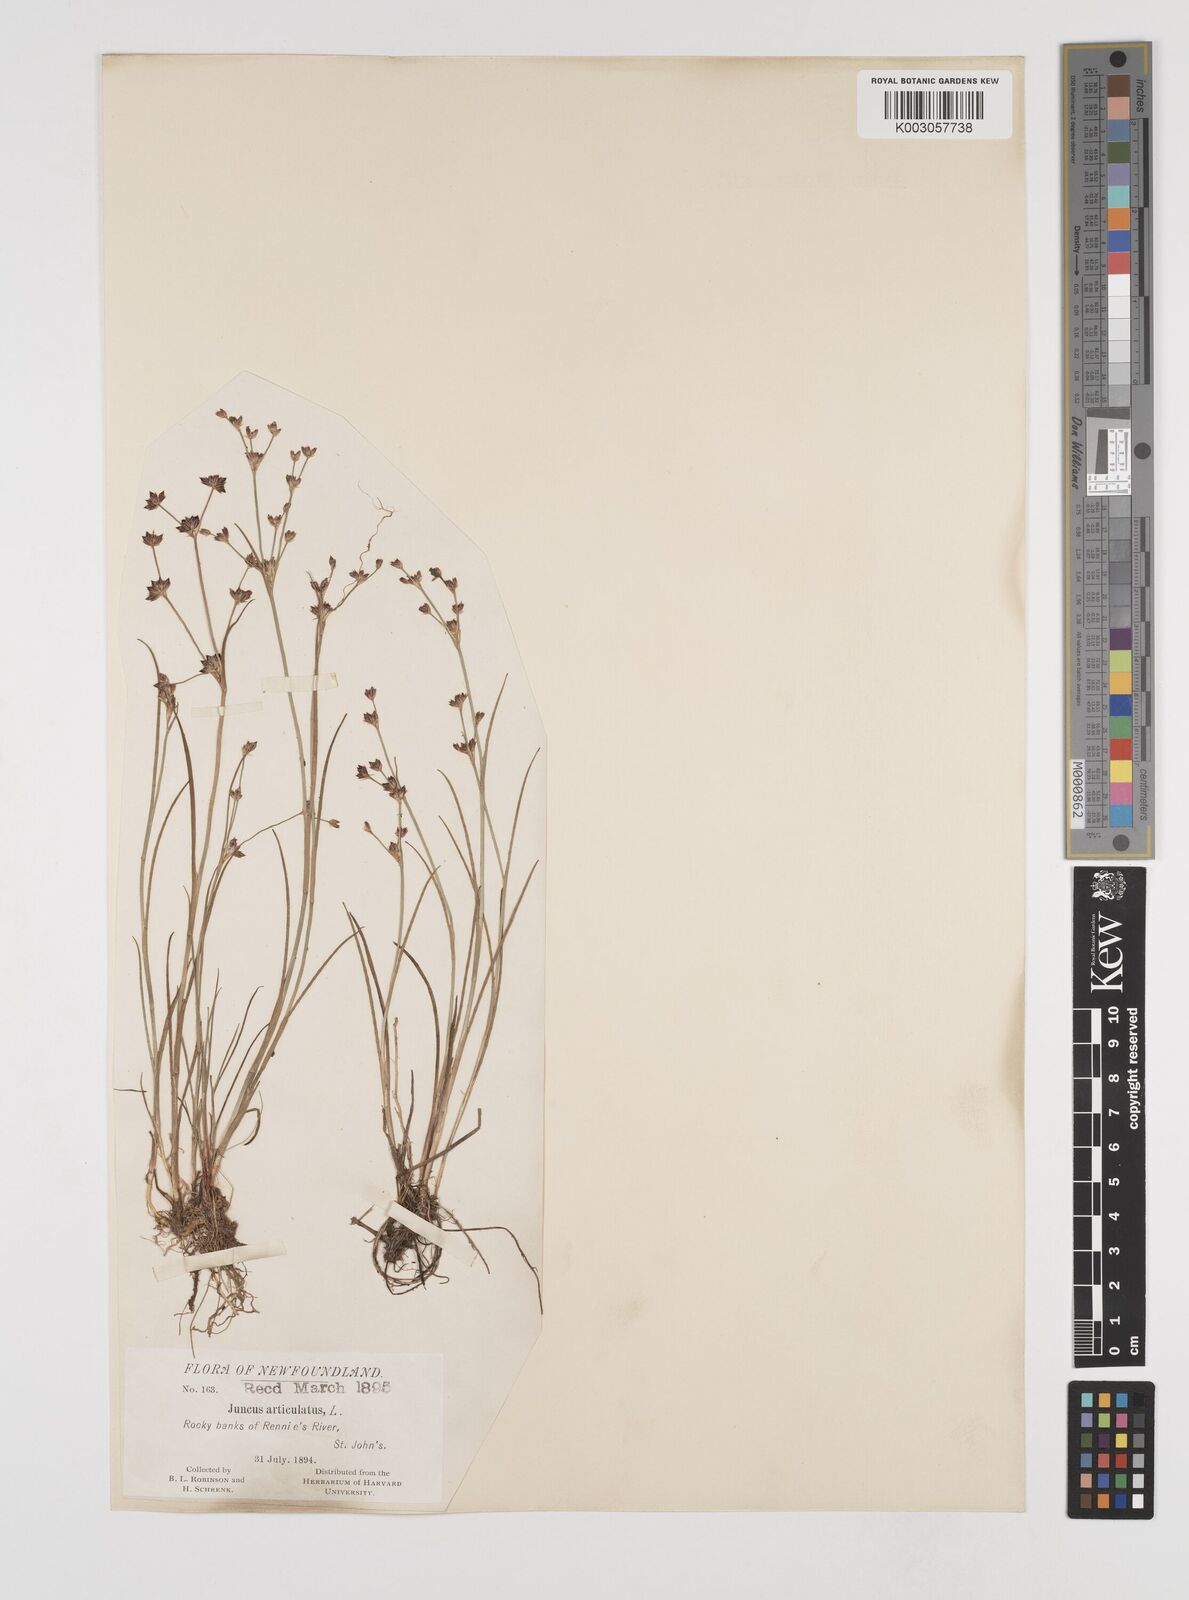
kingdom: Plantae
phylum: Tracheophyta
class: Liliopsida
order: Poales
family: Juncaceae
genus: Juncus
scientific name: Juncus articulatus
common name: Jointed rush
